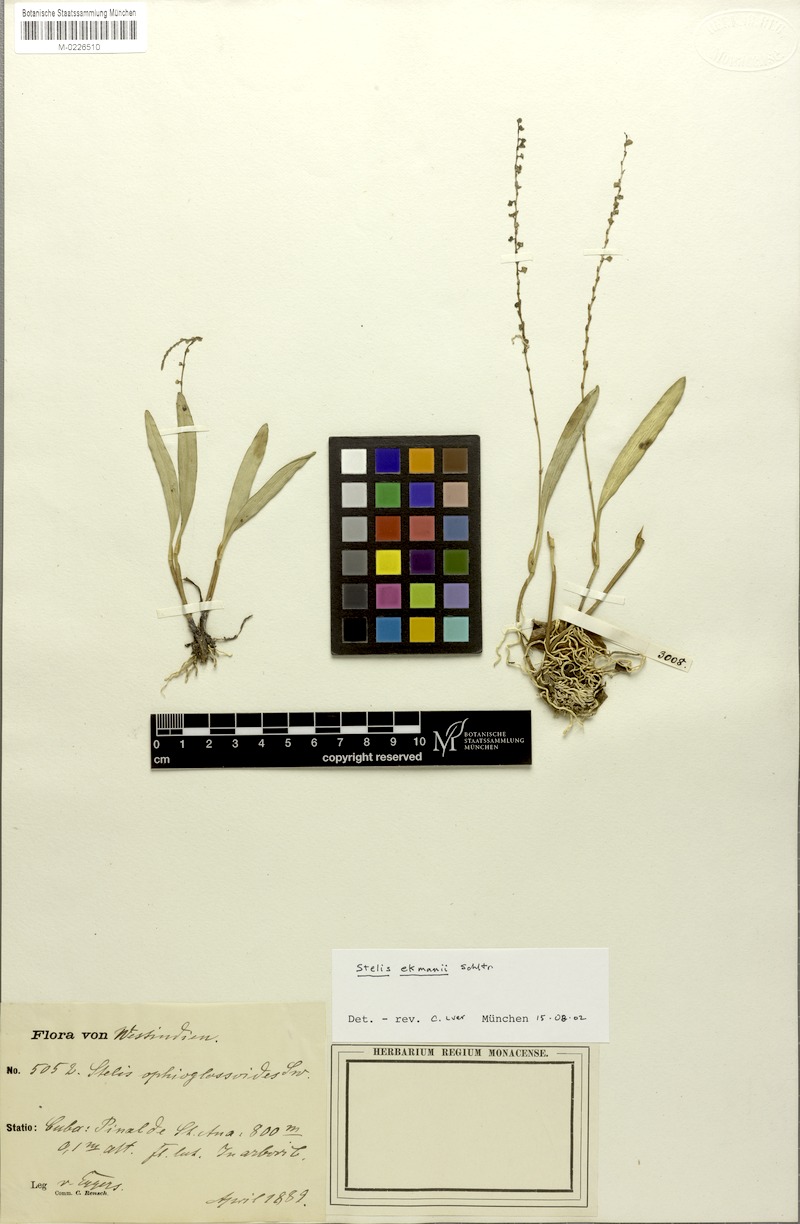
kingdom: Plantae
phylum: Tracheophyta
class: Liliopsida
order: Asparagales
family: Orchidaceae
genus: Stelis
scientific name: Stelis ekmanii
